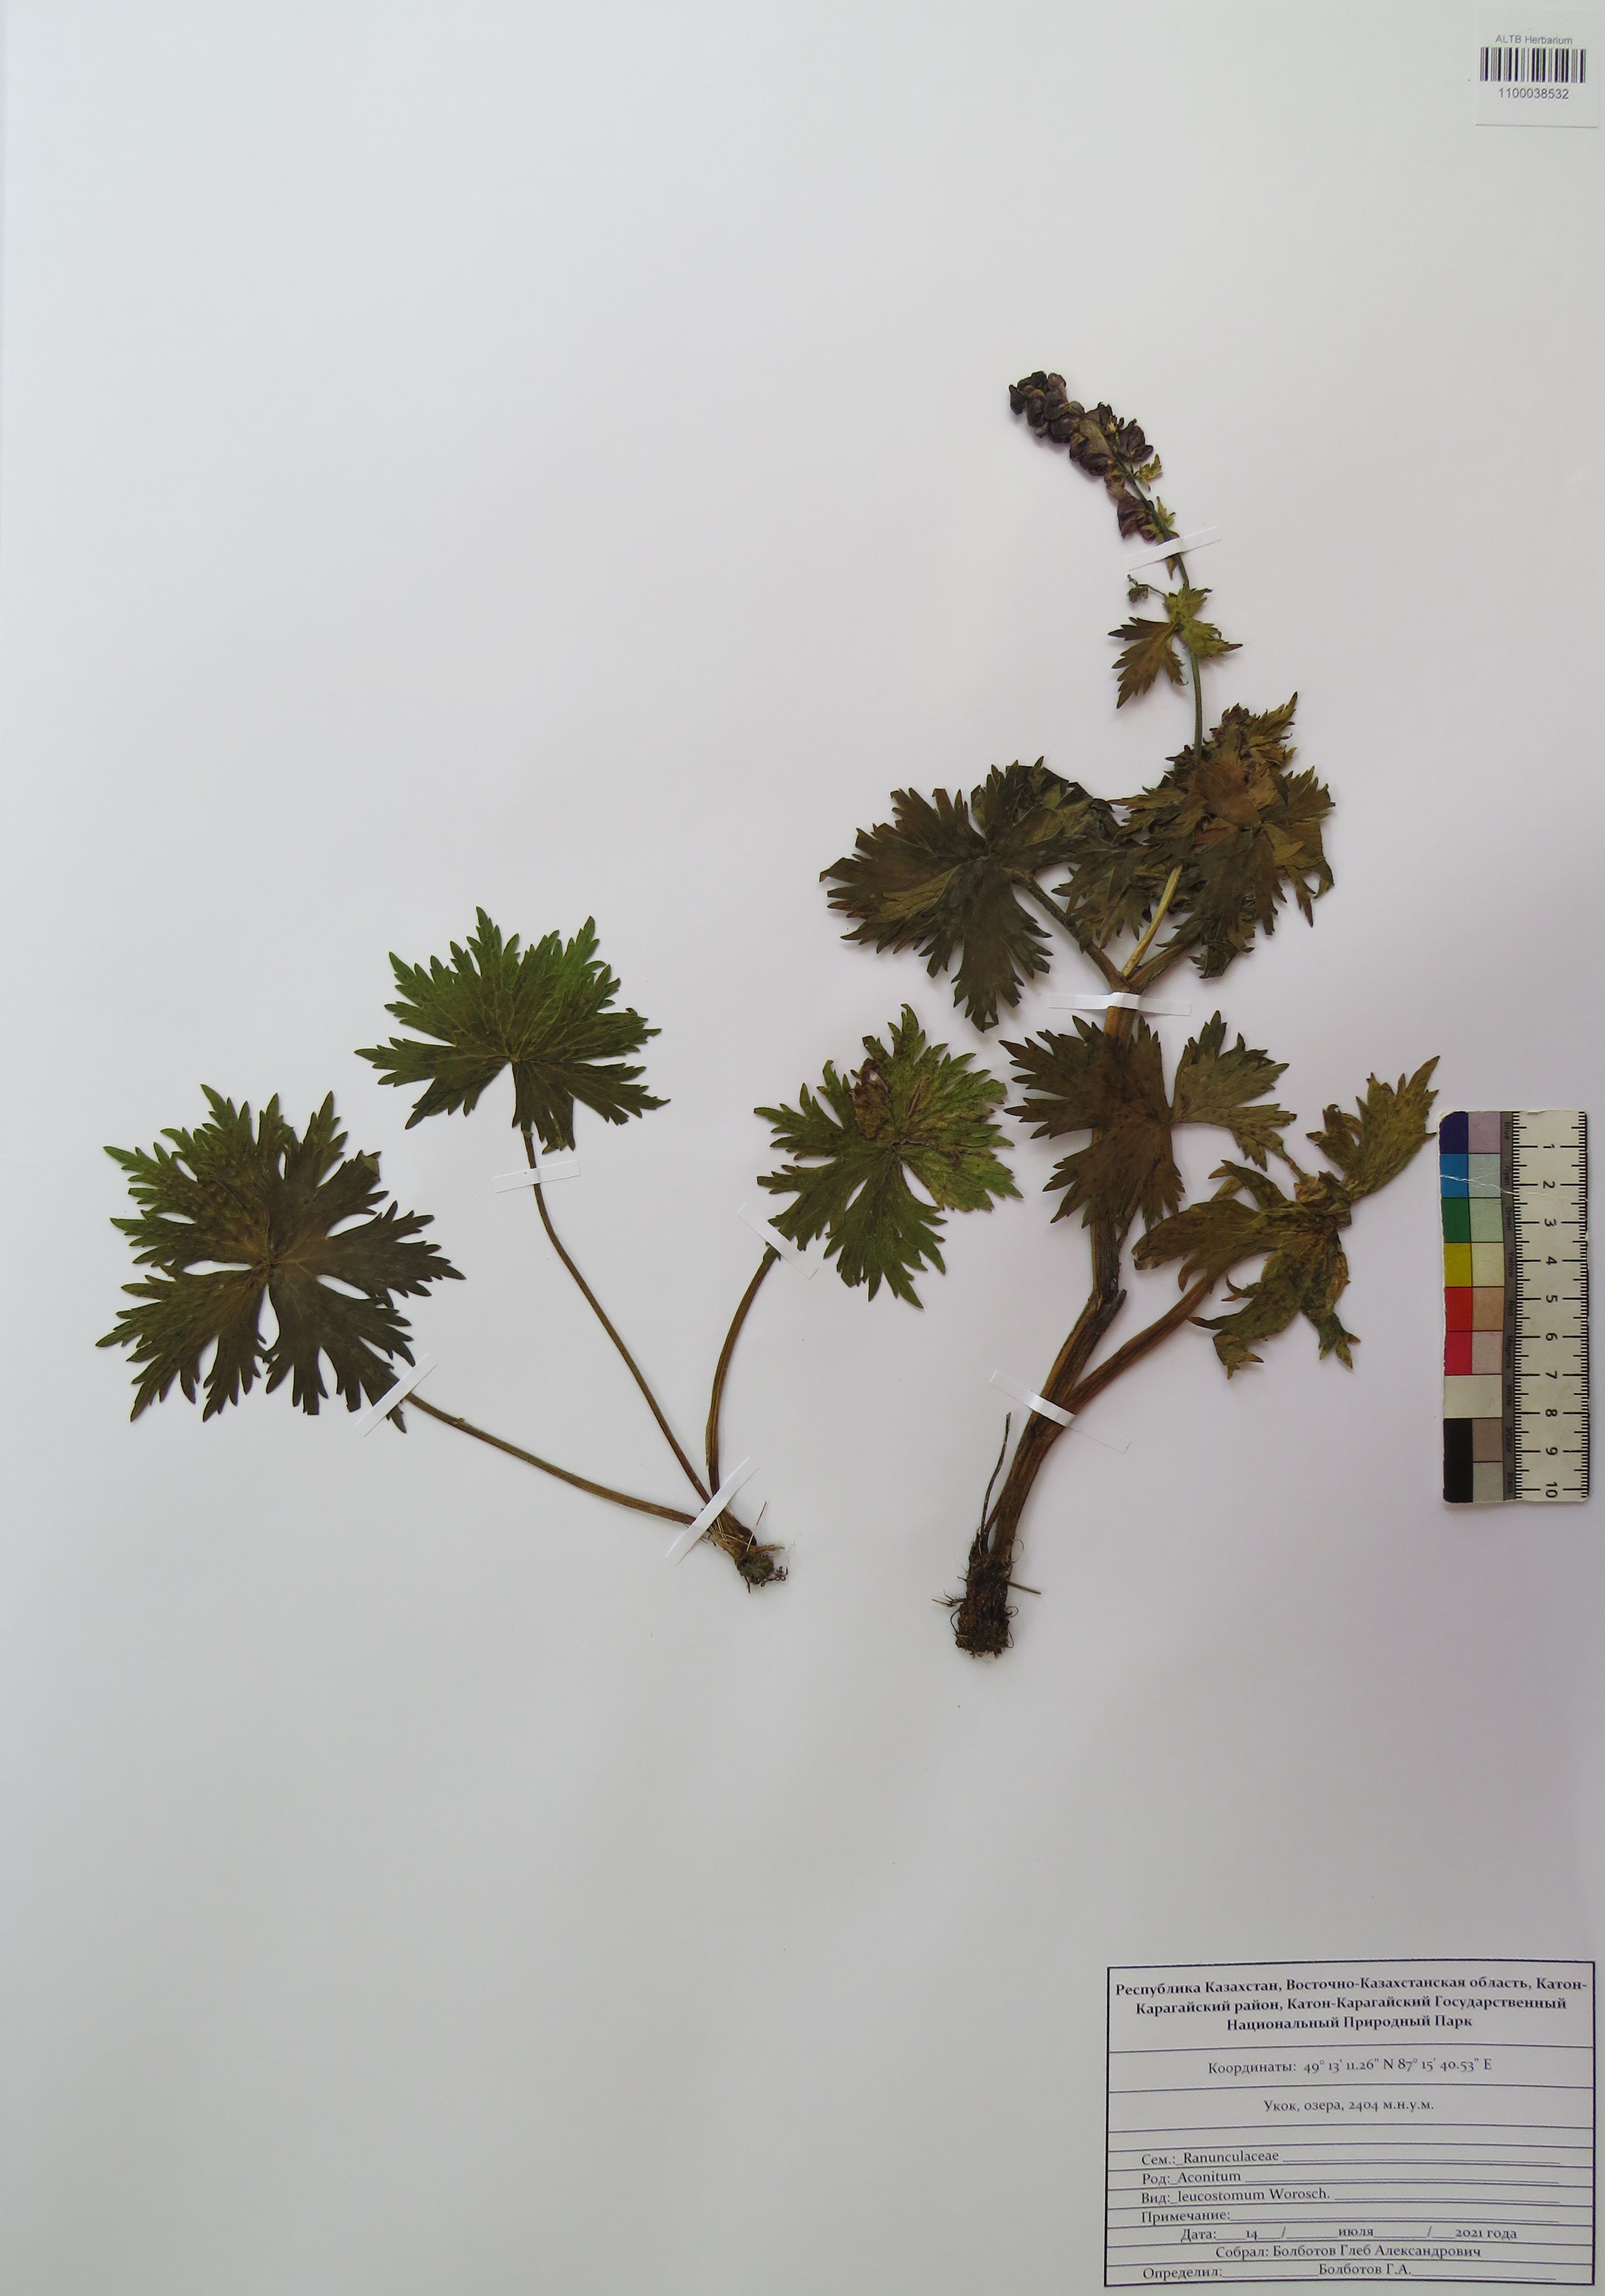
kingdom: Plantae
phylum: Tracheophyta
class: Magnoliopsida
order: Ranunculales
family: Ranunculaceae
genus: Aconitum
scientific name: Aconitum leucostomum
